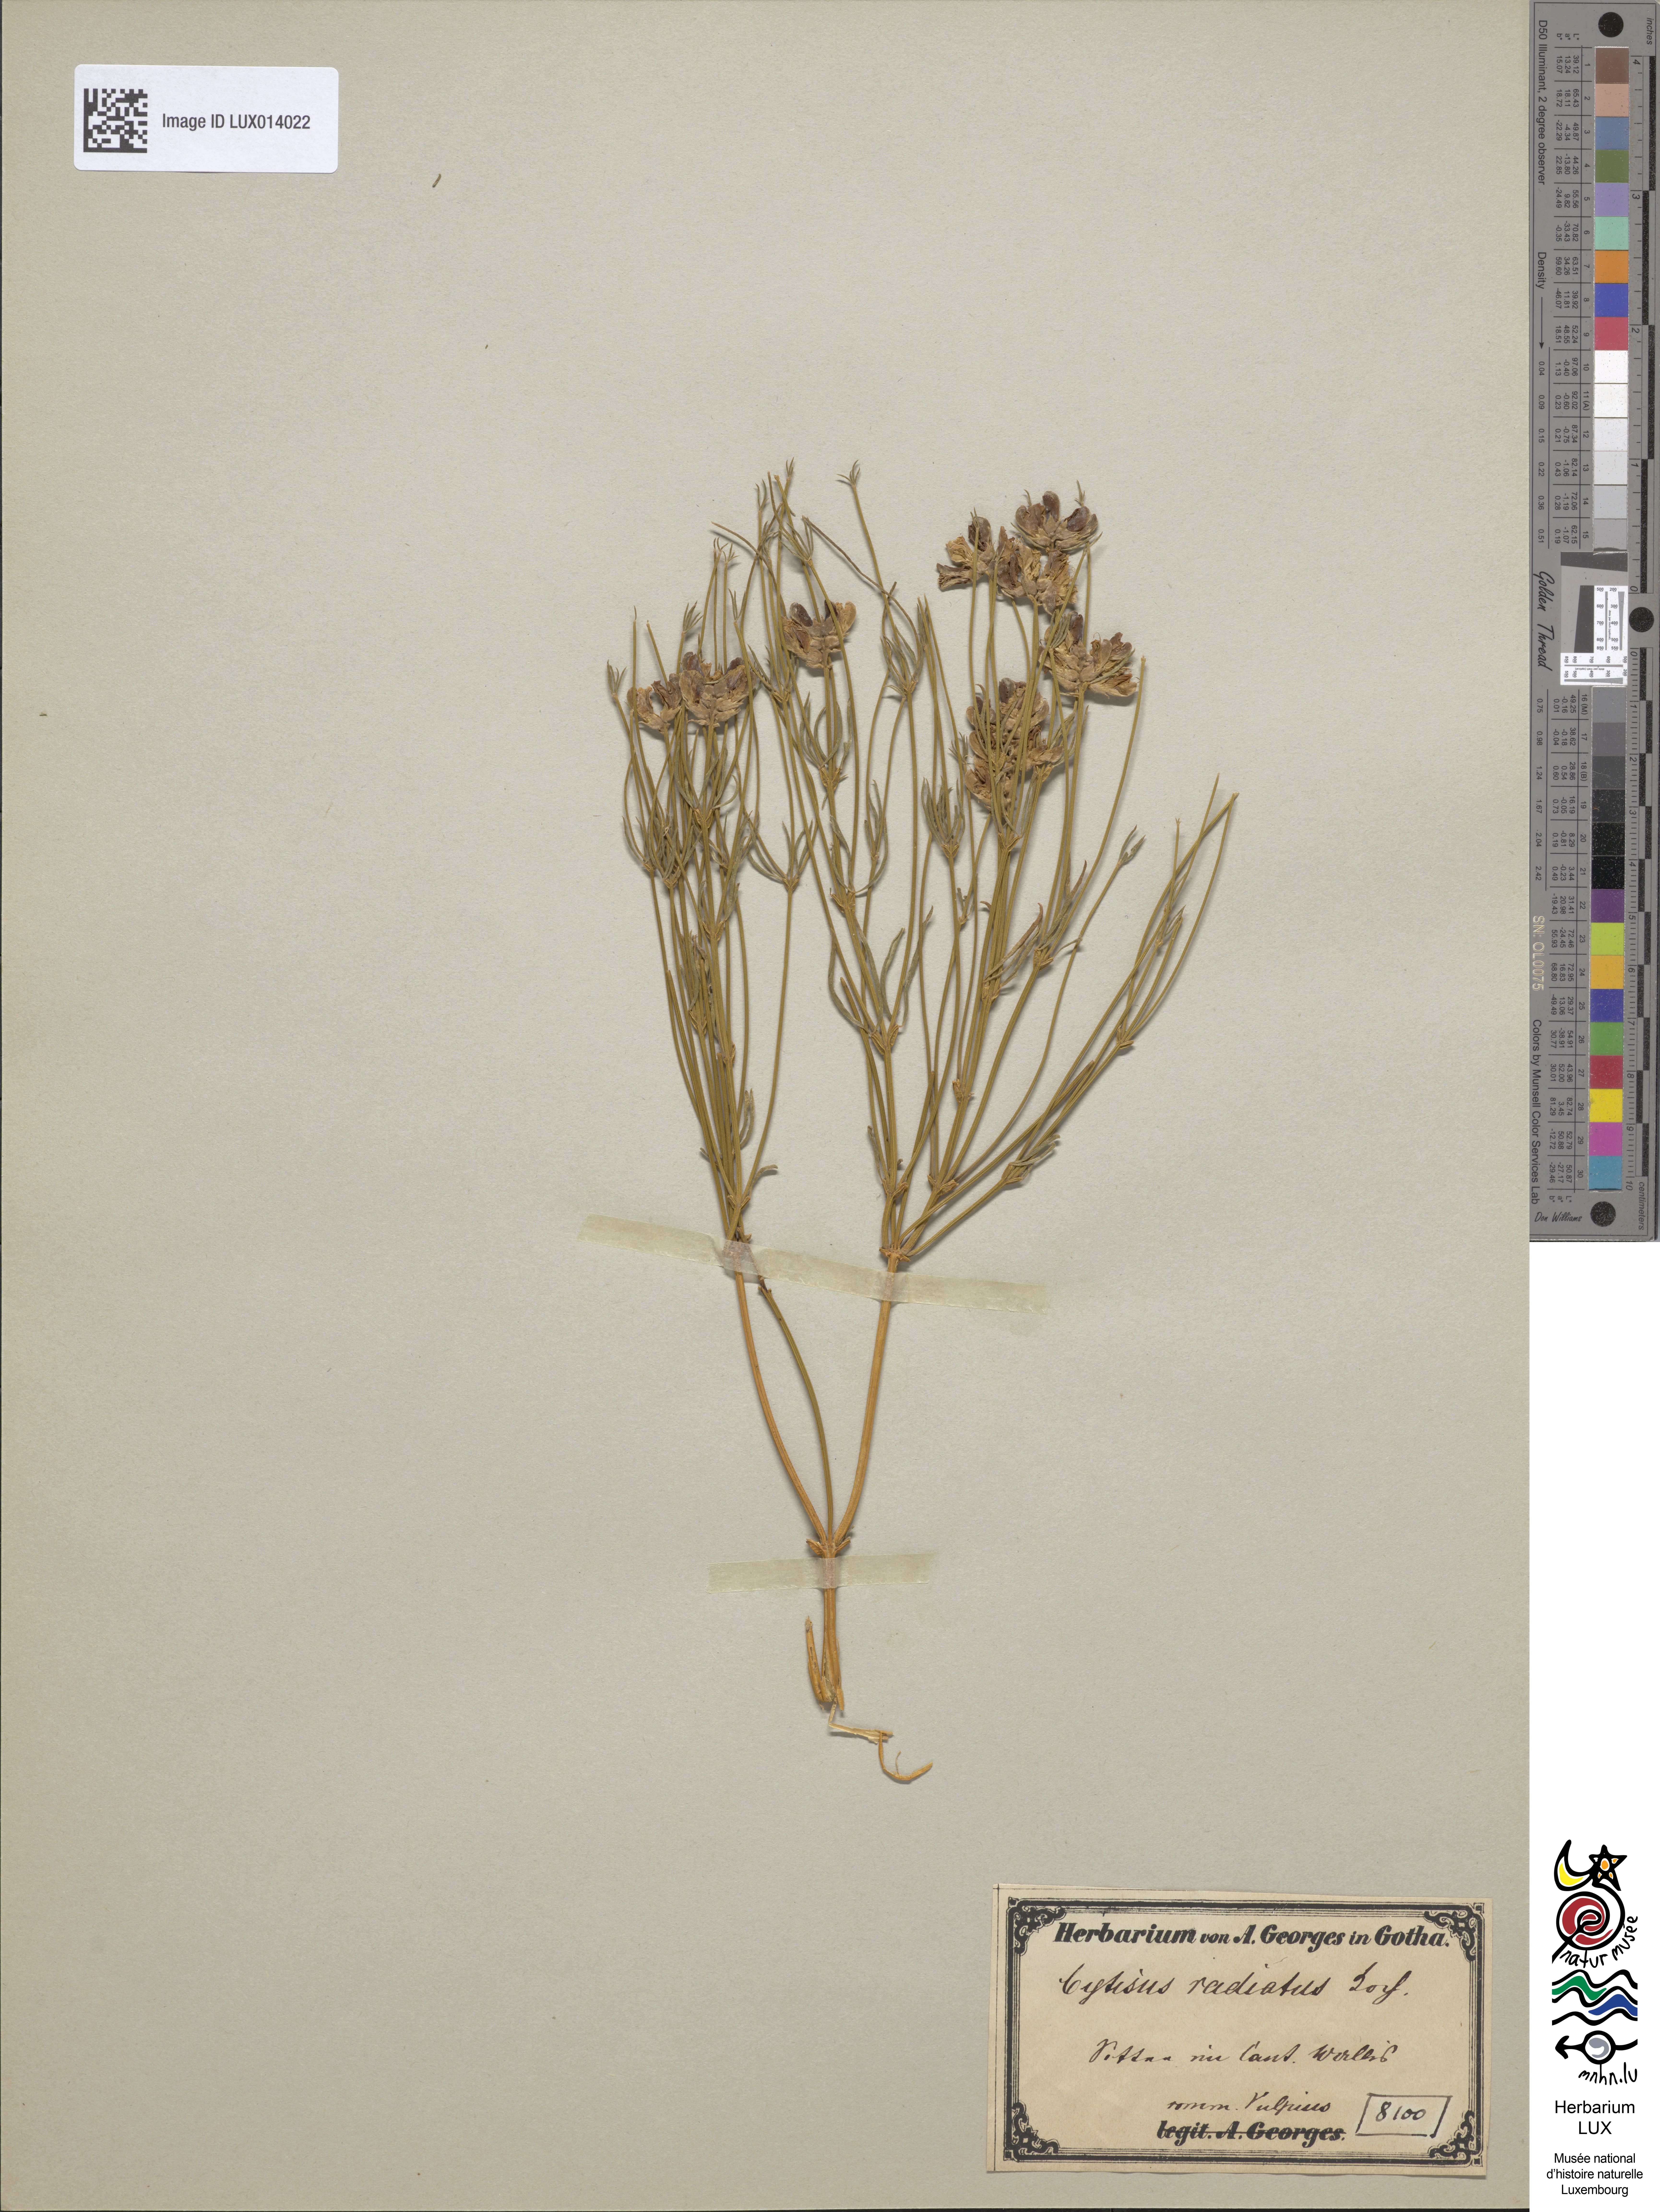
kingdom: Plantae
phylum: Tracheophyta
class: Magnoliopsida
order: Fabales
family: Fabaceae
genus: Genista
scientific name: Genista radiata
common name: Southern greenweed
